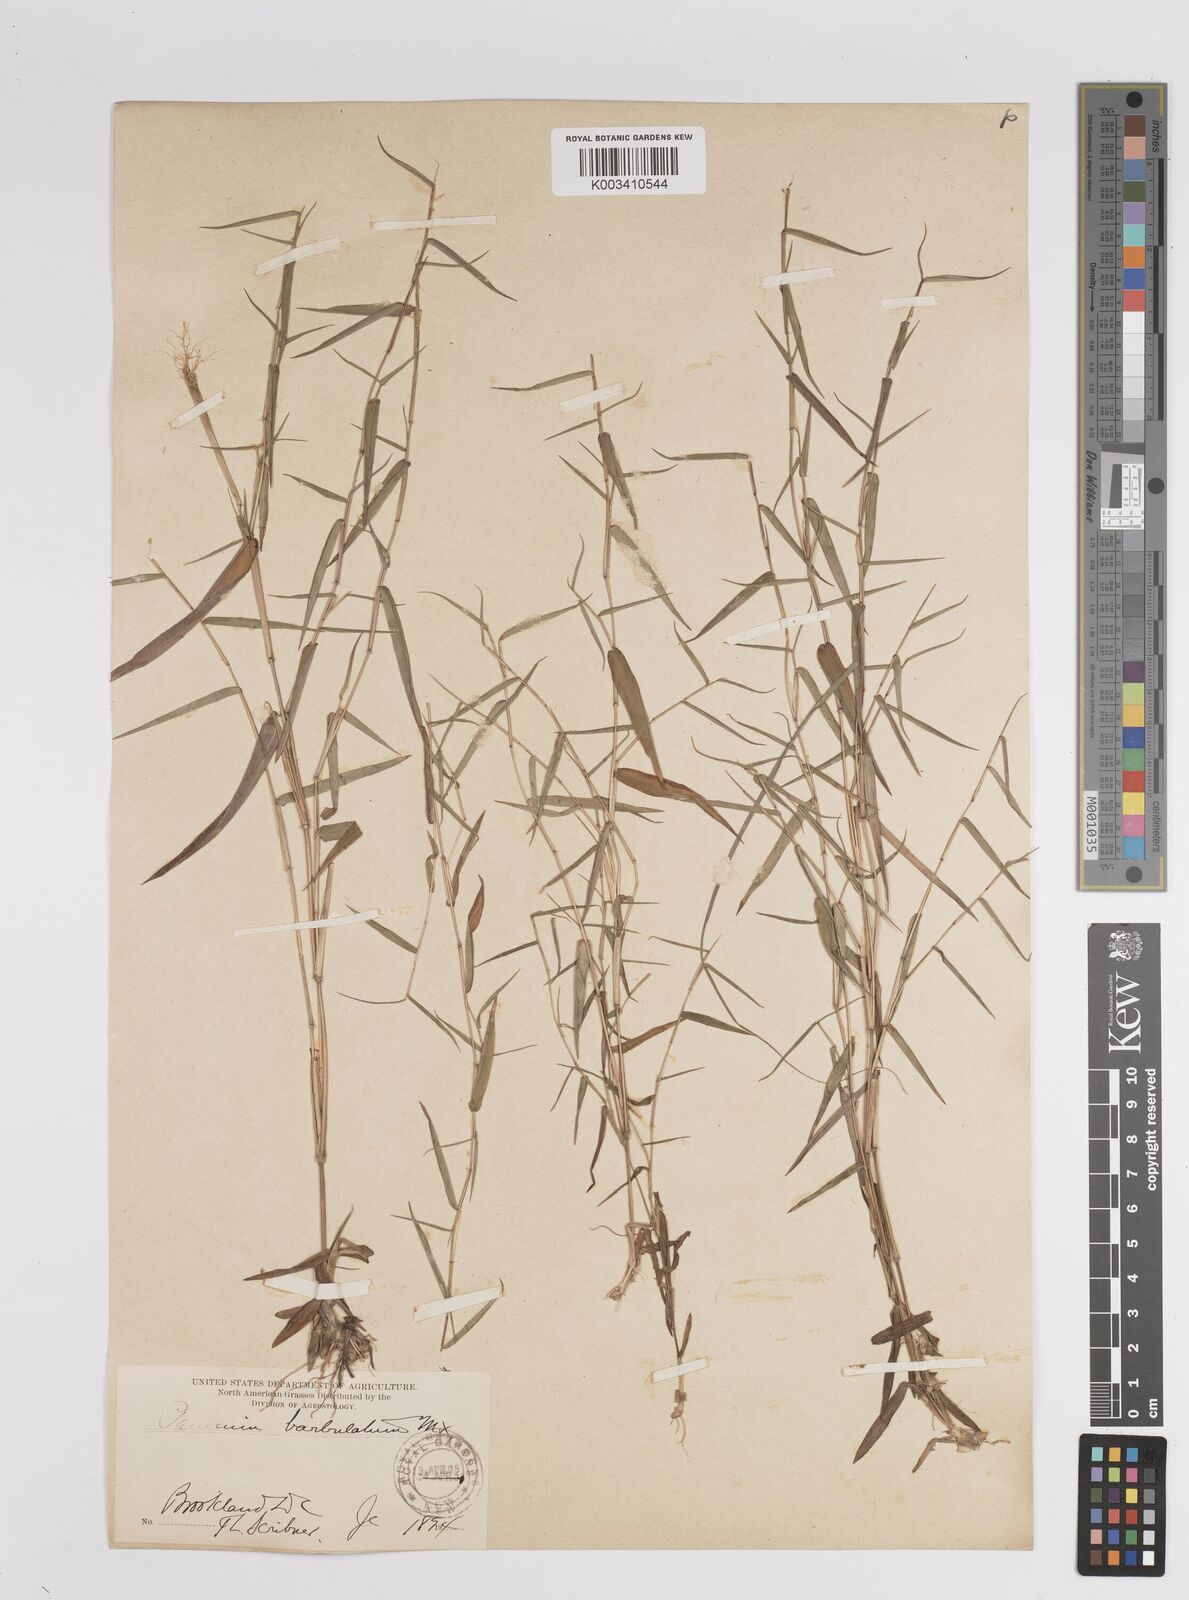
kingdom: Plantae
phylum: Tracheophyta
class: Liliopsida
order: Poales
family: Poaceae
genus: Dichanthelium
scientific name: Dichanthelium dichotomum
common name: Cypress panicgrass
